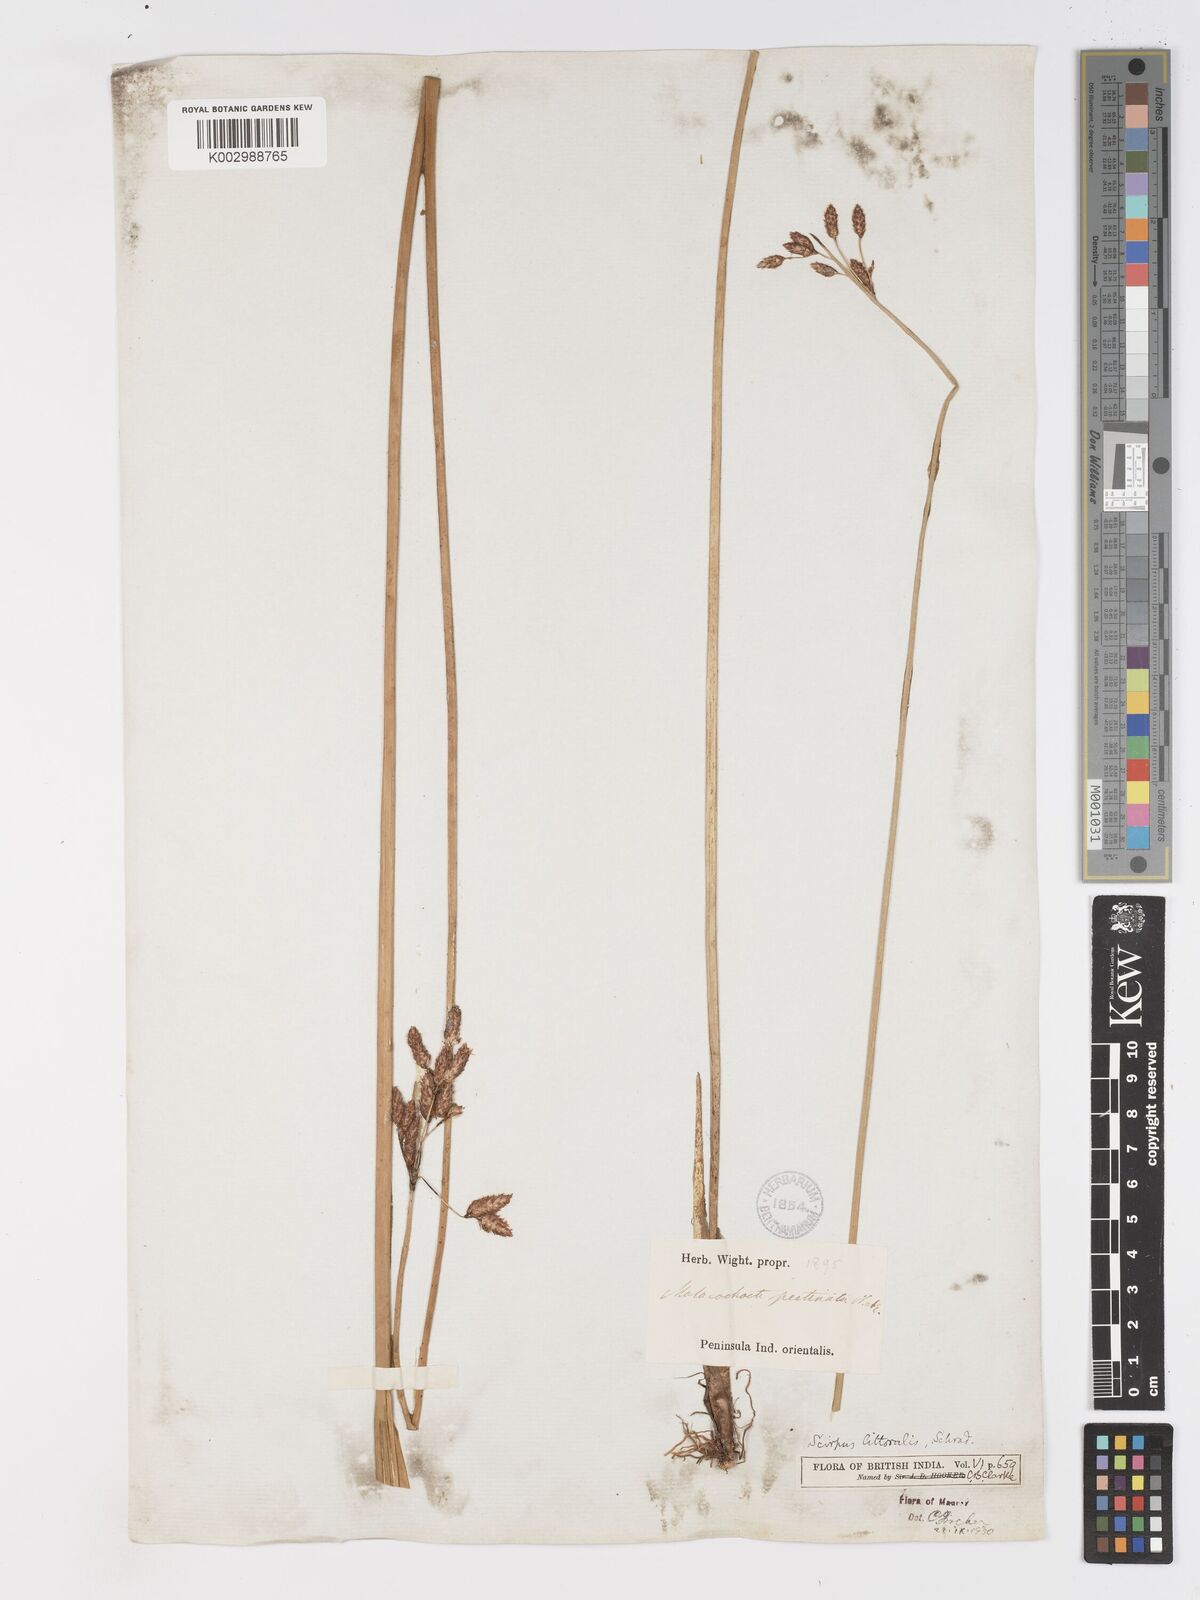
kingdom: Plantae
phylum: Tracheophyta
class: Liliopsida
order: Poales
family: Cyperaceae
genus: Schoenoplectus
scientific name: Schoenoplectus litoralis
